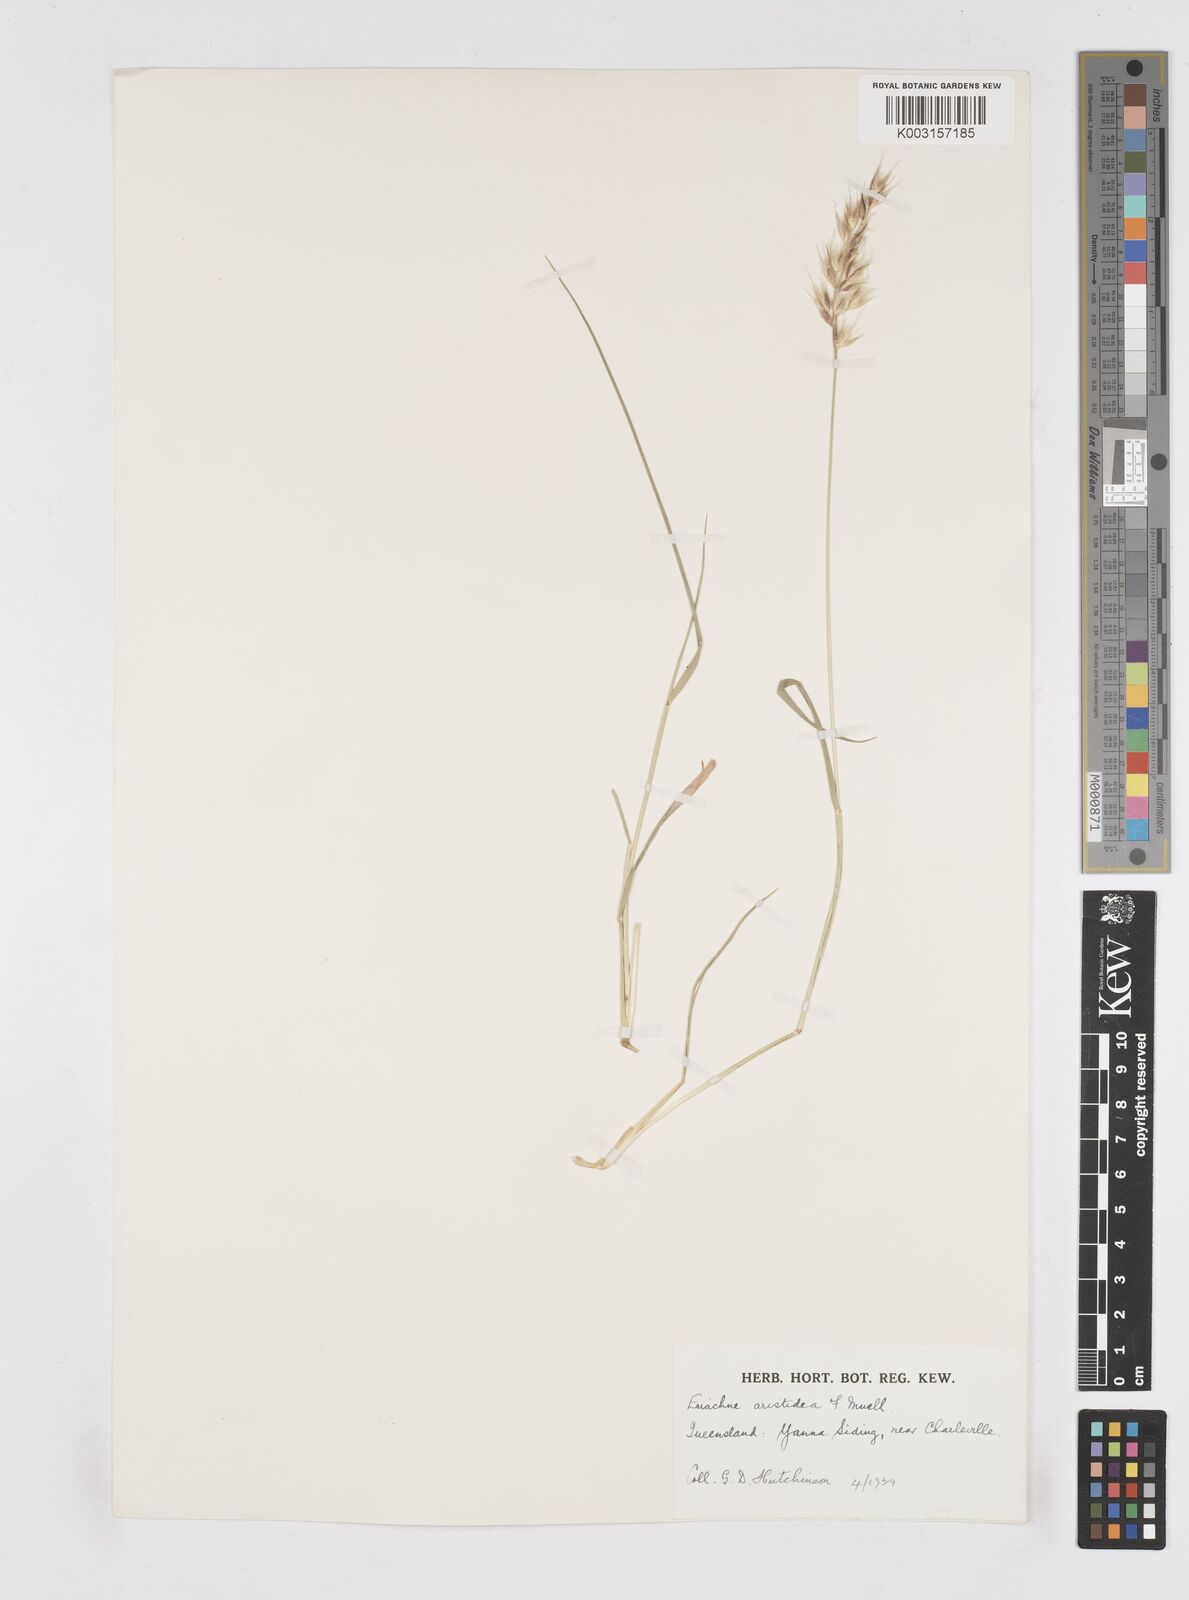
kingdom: Plantae
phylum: Tracheophyta
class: Liliopsida
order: Poales
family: Poaceae
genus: Eriachne
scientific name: Eriachne aristidea
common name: Three-awn wanderrie grass
